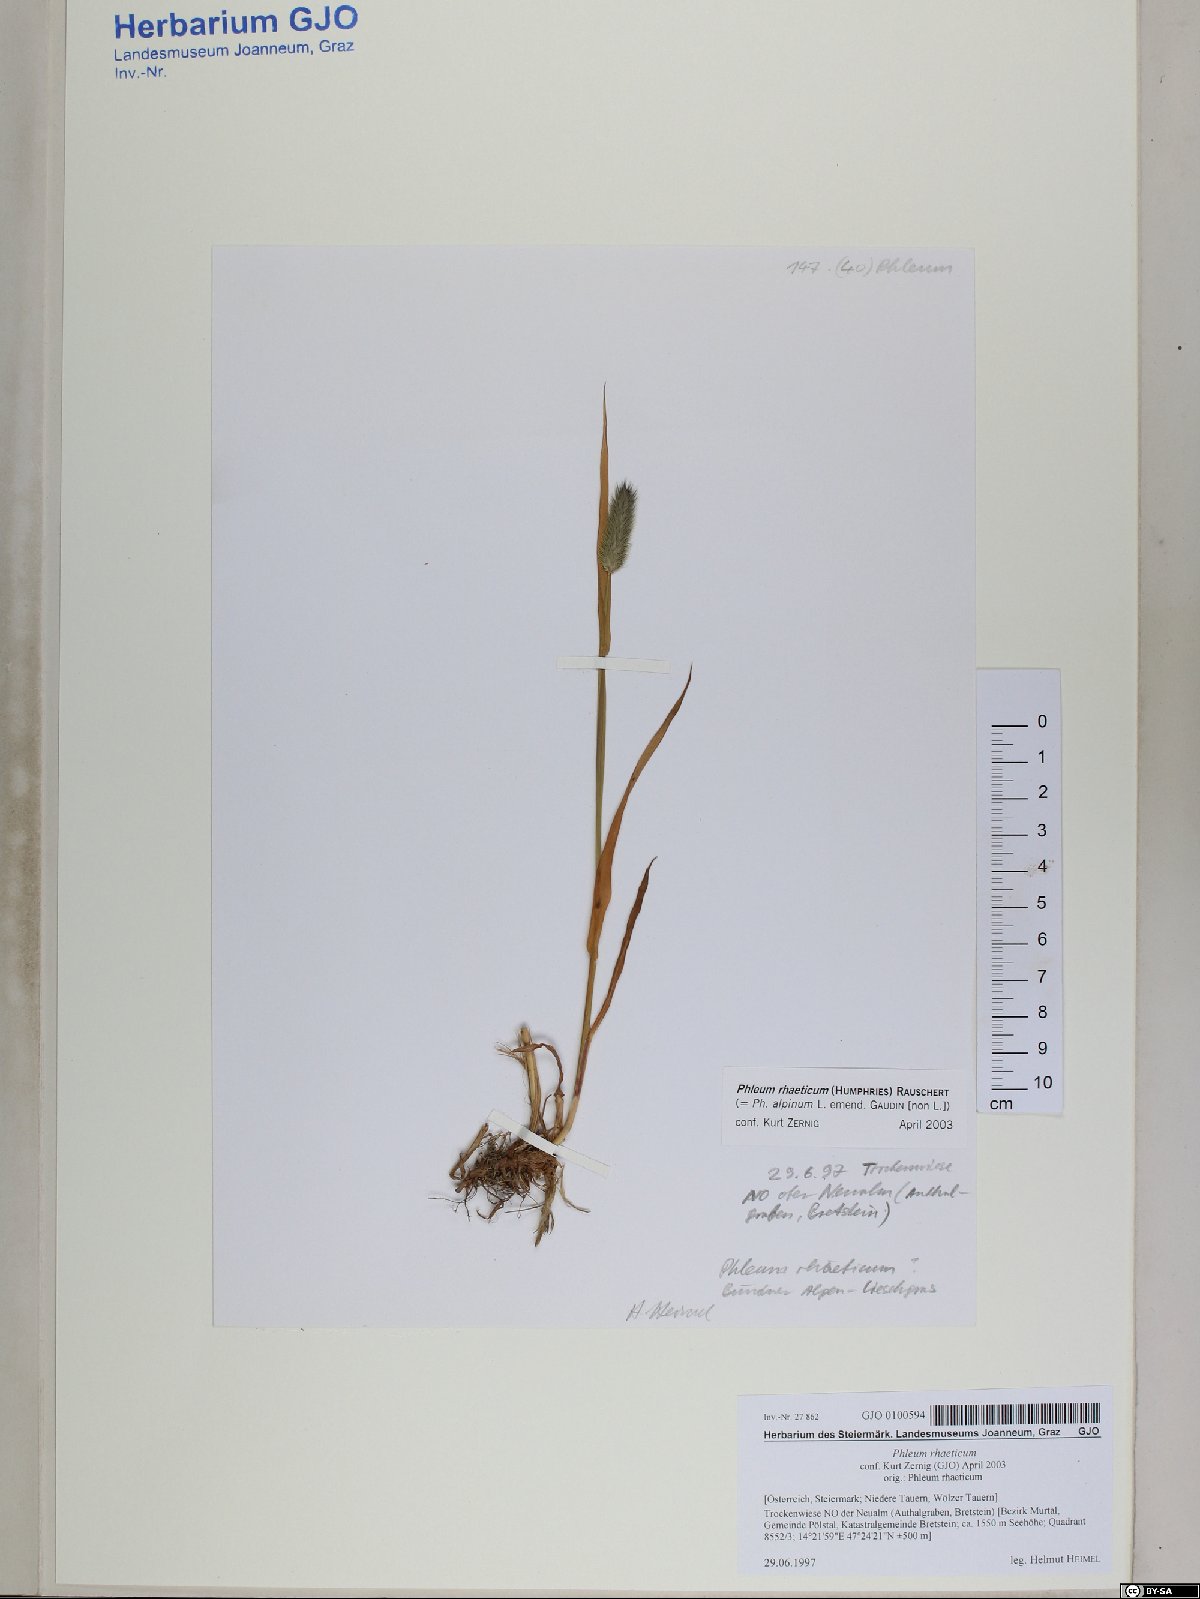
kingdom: Plantae
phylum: Tracheophyta
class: Liliopsida
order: Poales
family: Poaceae
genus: Phleum
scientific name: Phleum alpinum
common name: Alpine cat's-tail
